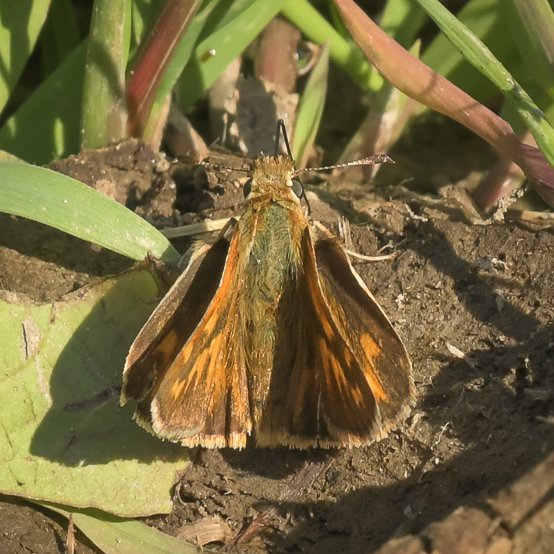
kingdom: Animalia
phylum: Arthropoda
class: Insecta
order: Lepidoptera
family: Hesperiidae
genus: Ochlodes
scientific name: Ochlodes sylvanoides
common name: Woodland Skipper
